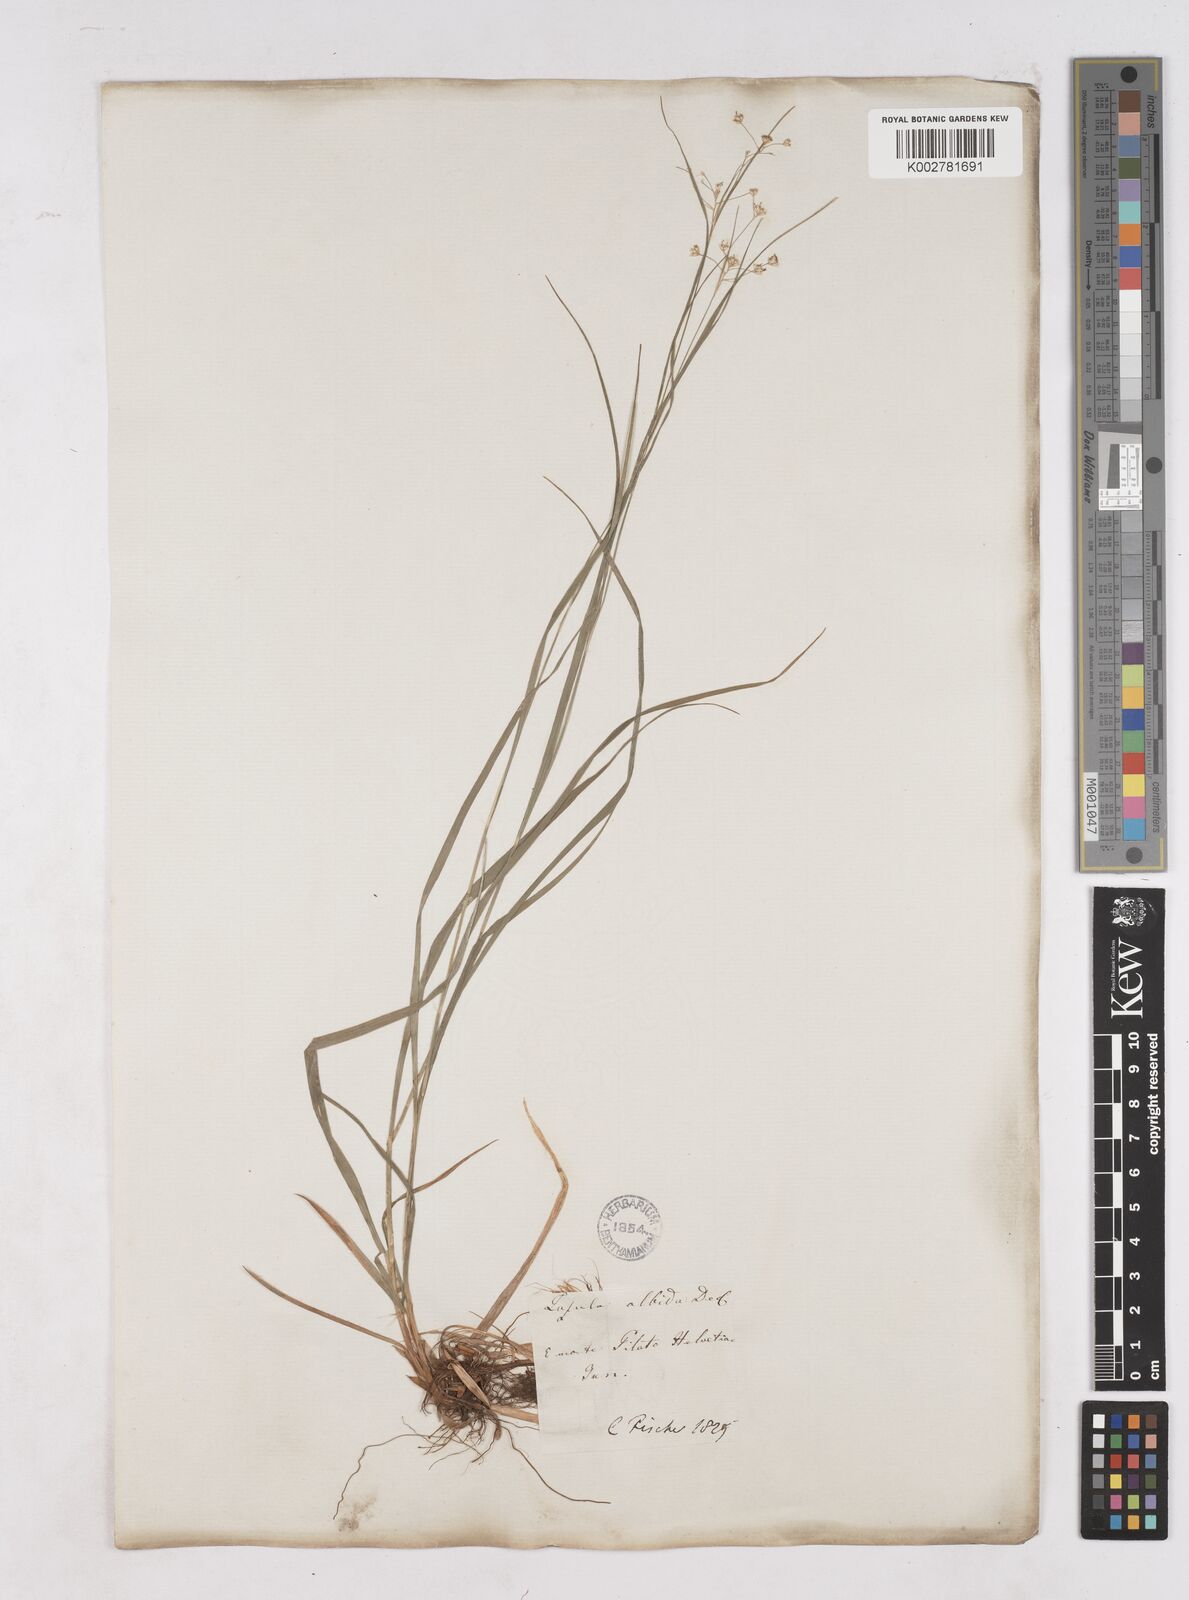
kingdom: Plantae
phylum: Tracheophyta
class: Liliopsida
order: Poales
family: Juncaceae
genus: Luzula
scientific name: Luzula luzuloides
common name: White wood-rush
